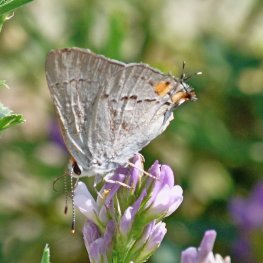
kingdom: Animalia
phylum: Arthropoda
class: Insecta
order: Lepidoptera
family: Lycaenidae
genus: Strymon
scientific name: Strymon melinus
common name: Gray Hairstreak
